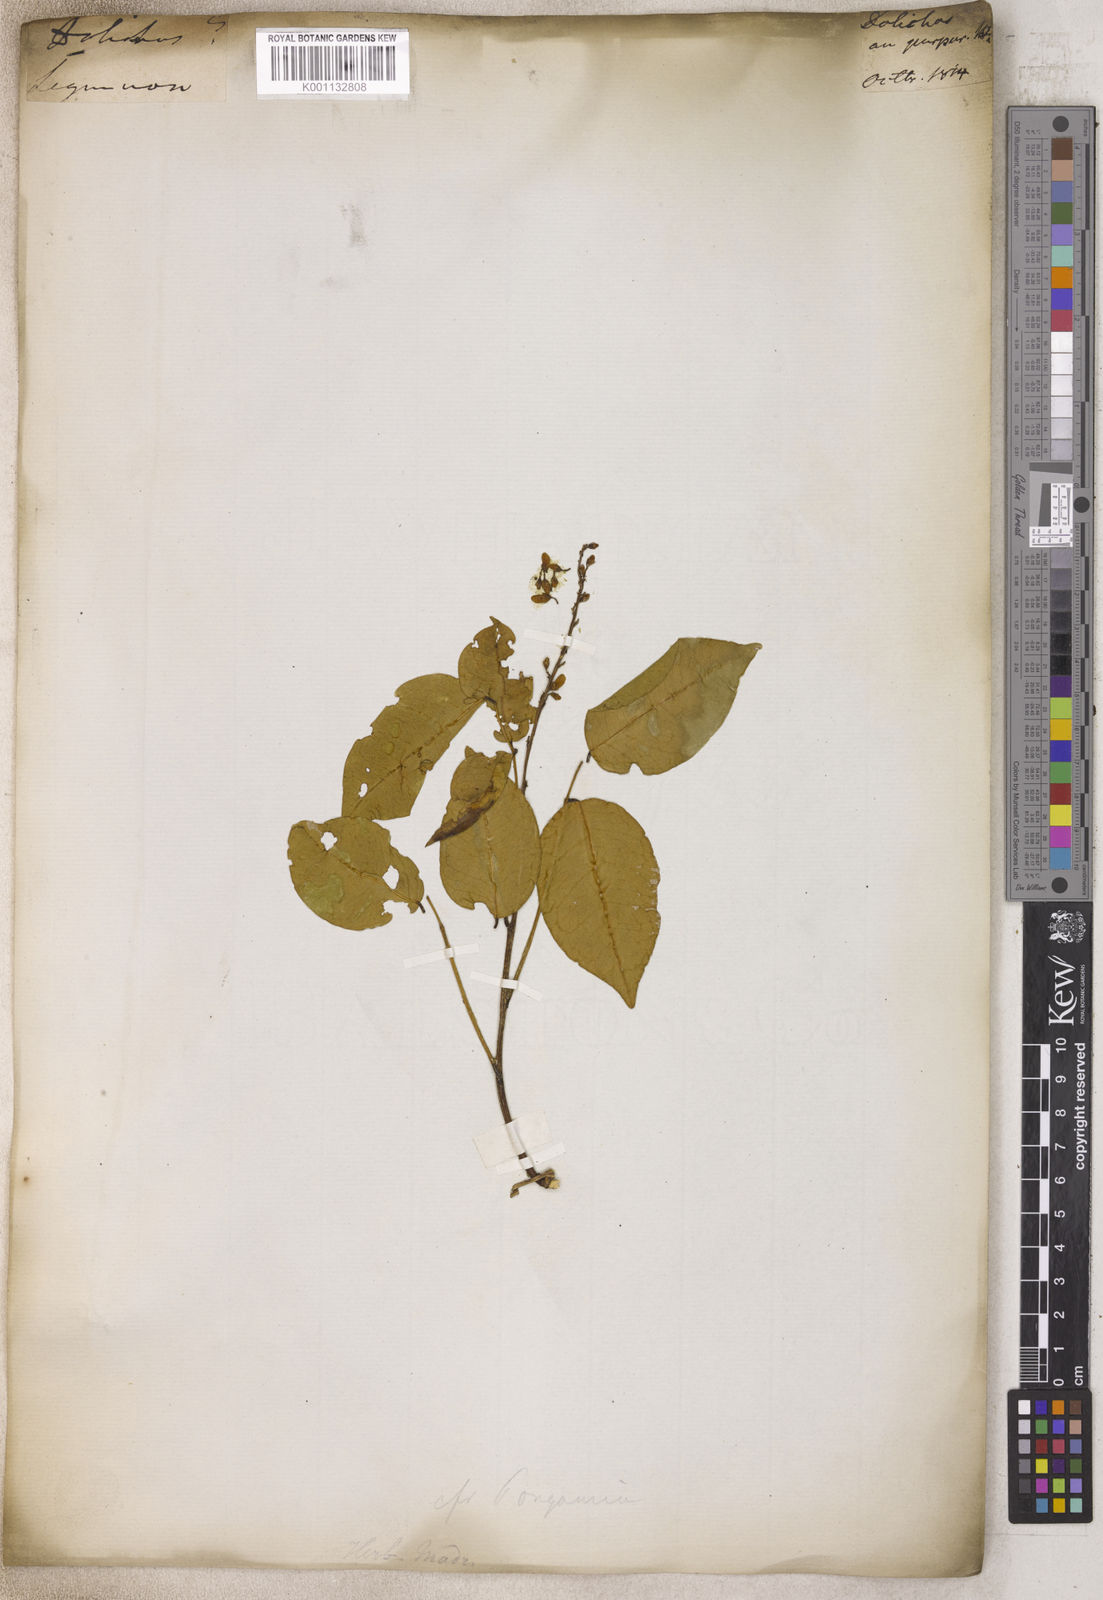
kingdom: Plantae
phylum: Tracheophyta
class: Magnoliopsida
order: Fabales
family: Fabaceae
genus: Lablab
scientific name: Lablab purpureus
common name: Lablab-bean
